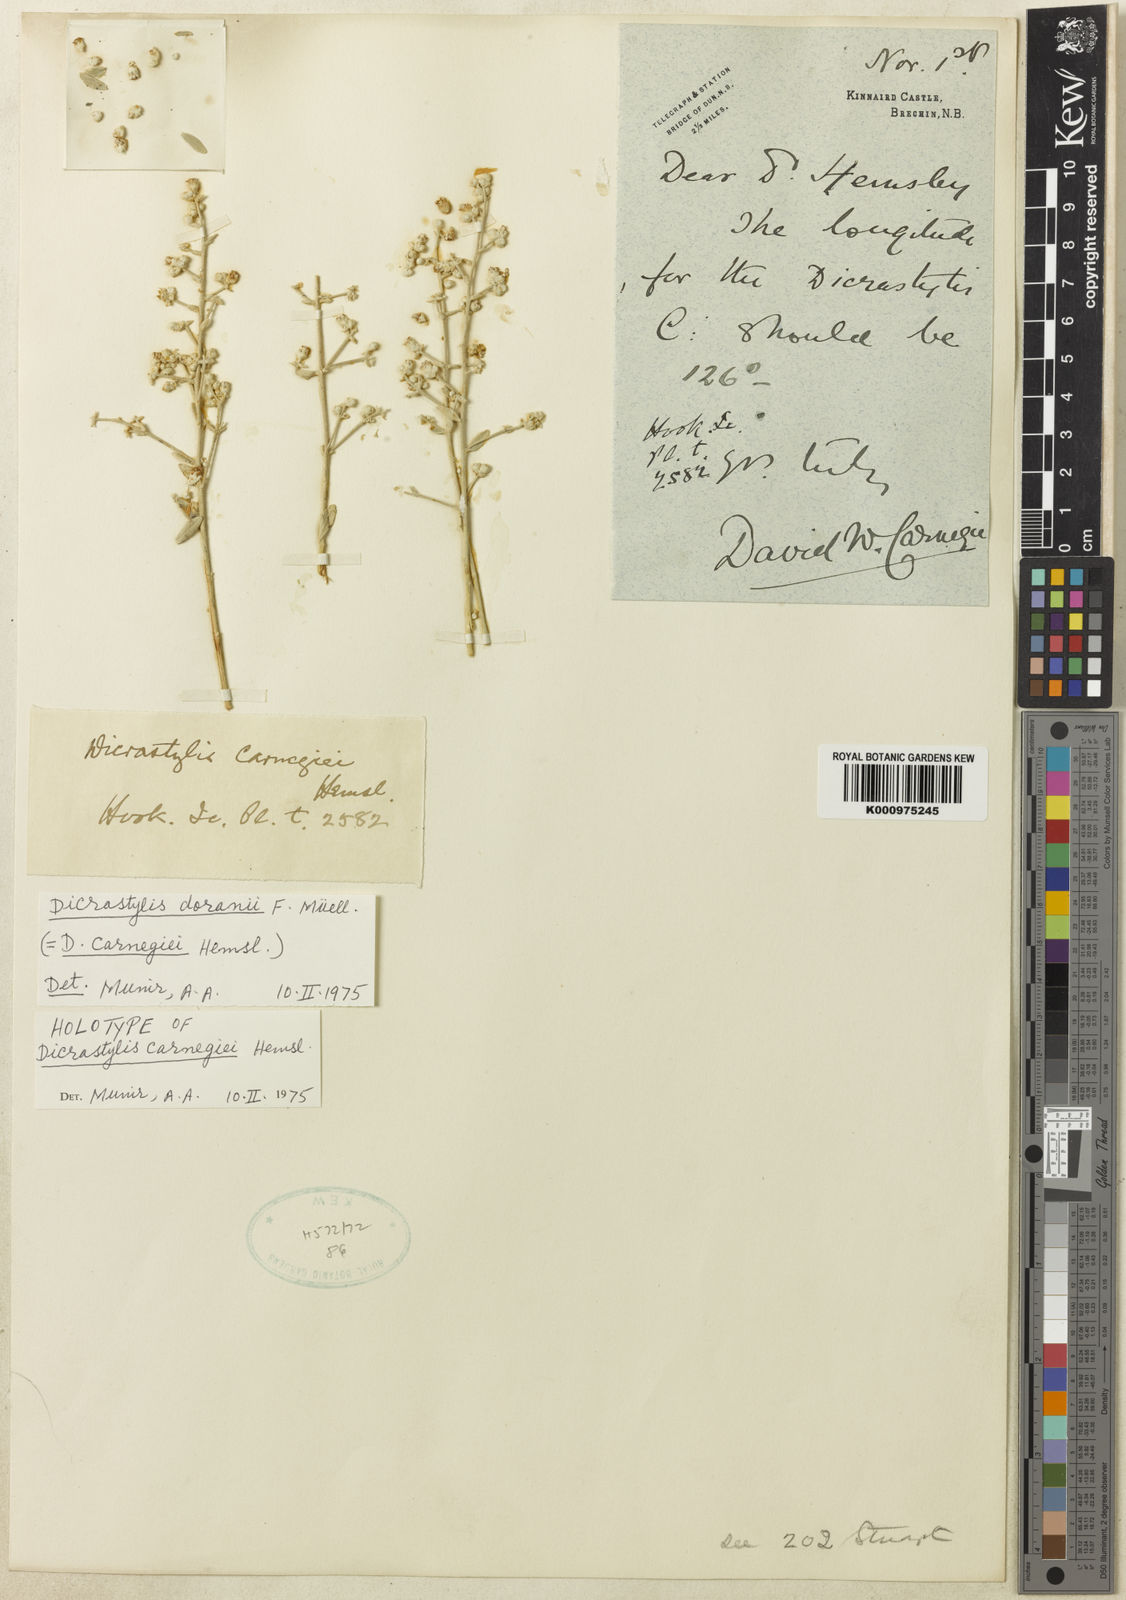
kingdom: Plantae
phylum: Tracheophyta
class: Magnoliopsida
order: Lamiales
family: Lamiaceae
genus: Dicrastylis
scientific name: Dicrastylis doranii
